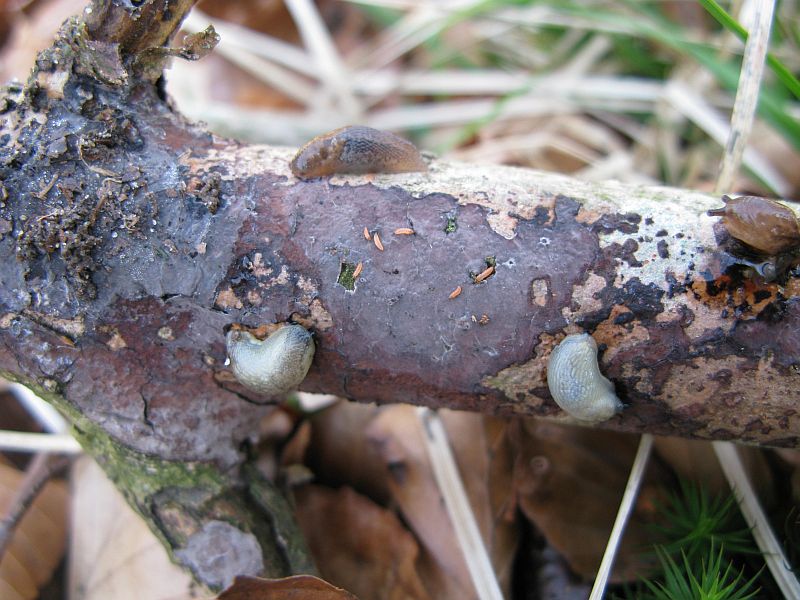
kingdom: Fungi
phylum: Basidiomycota
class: Agaricomycetes
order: Russulales
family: Peniophoraceae
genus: Peniophora
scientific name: Peniophora limitata
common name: mørkrandet voksskind
